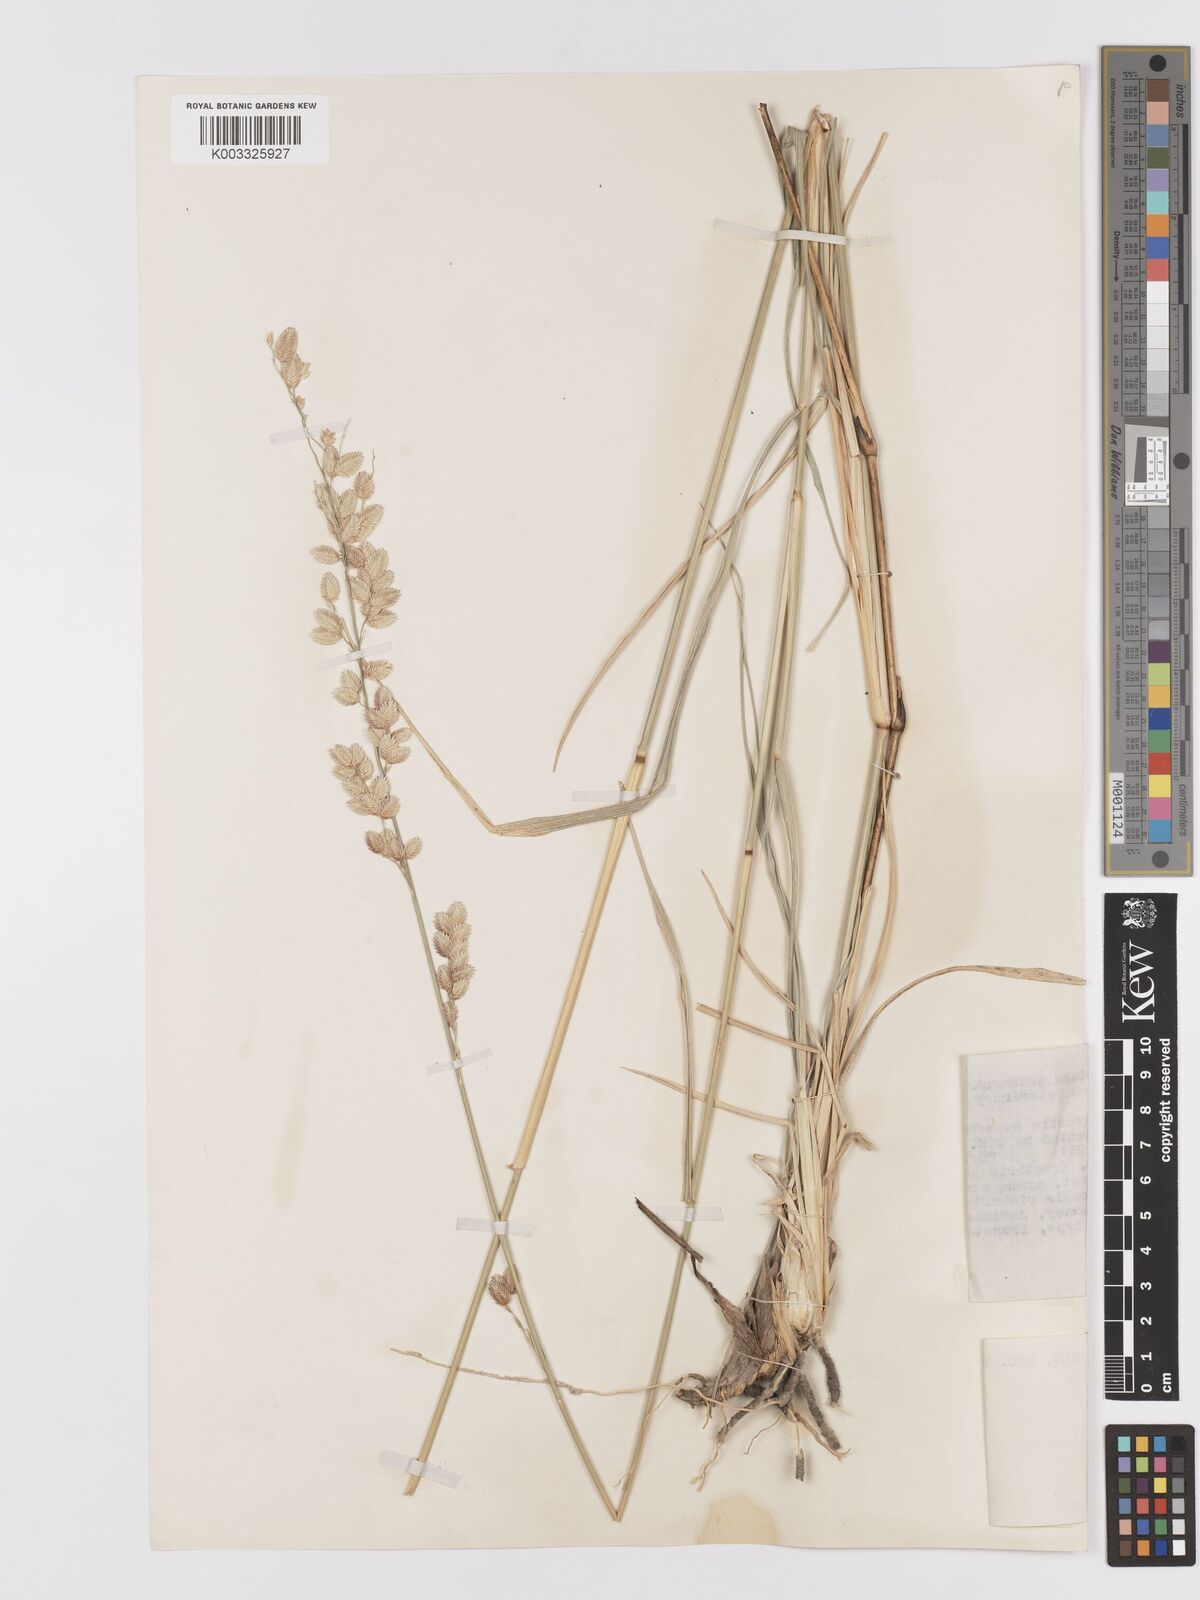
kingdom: Plantae
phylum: Tracheophyta
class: Liliopsida
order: Poales
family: Poaceae
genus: Eragrostis
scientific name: Eragrostis superba
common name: Wilman lovegrass
